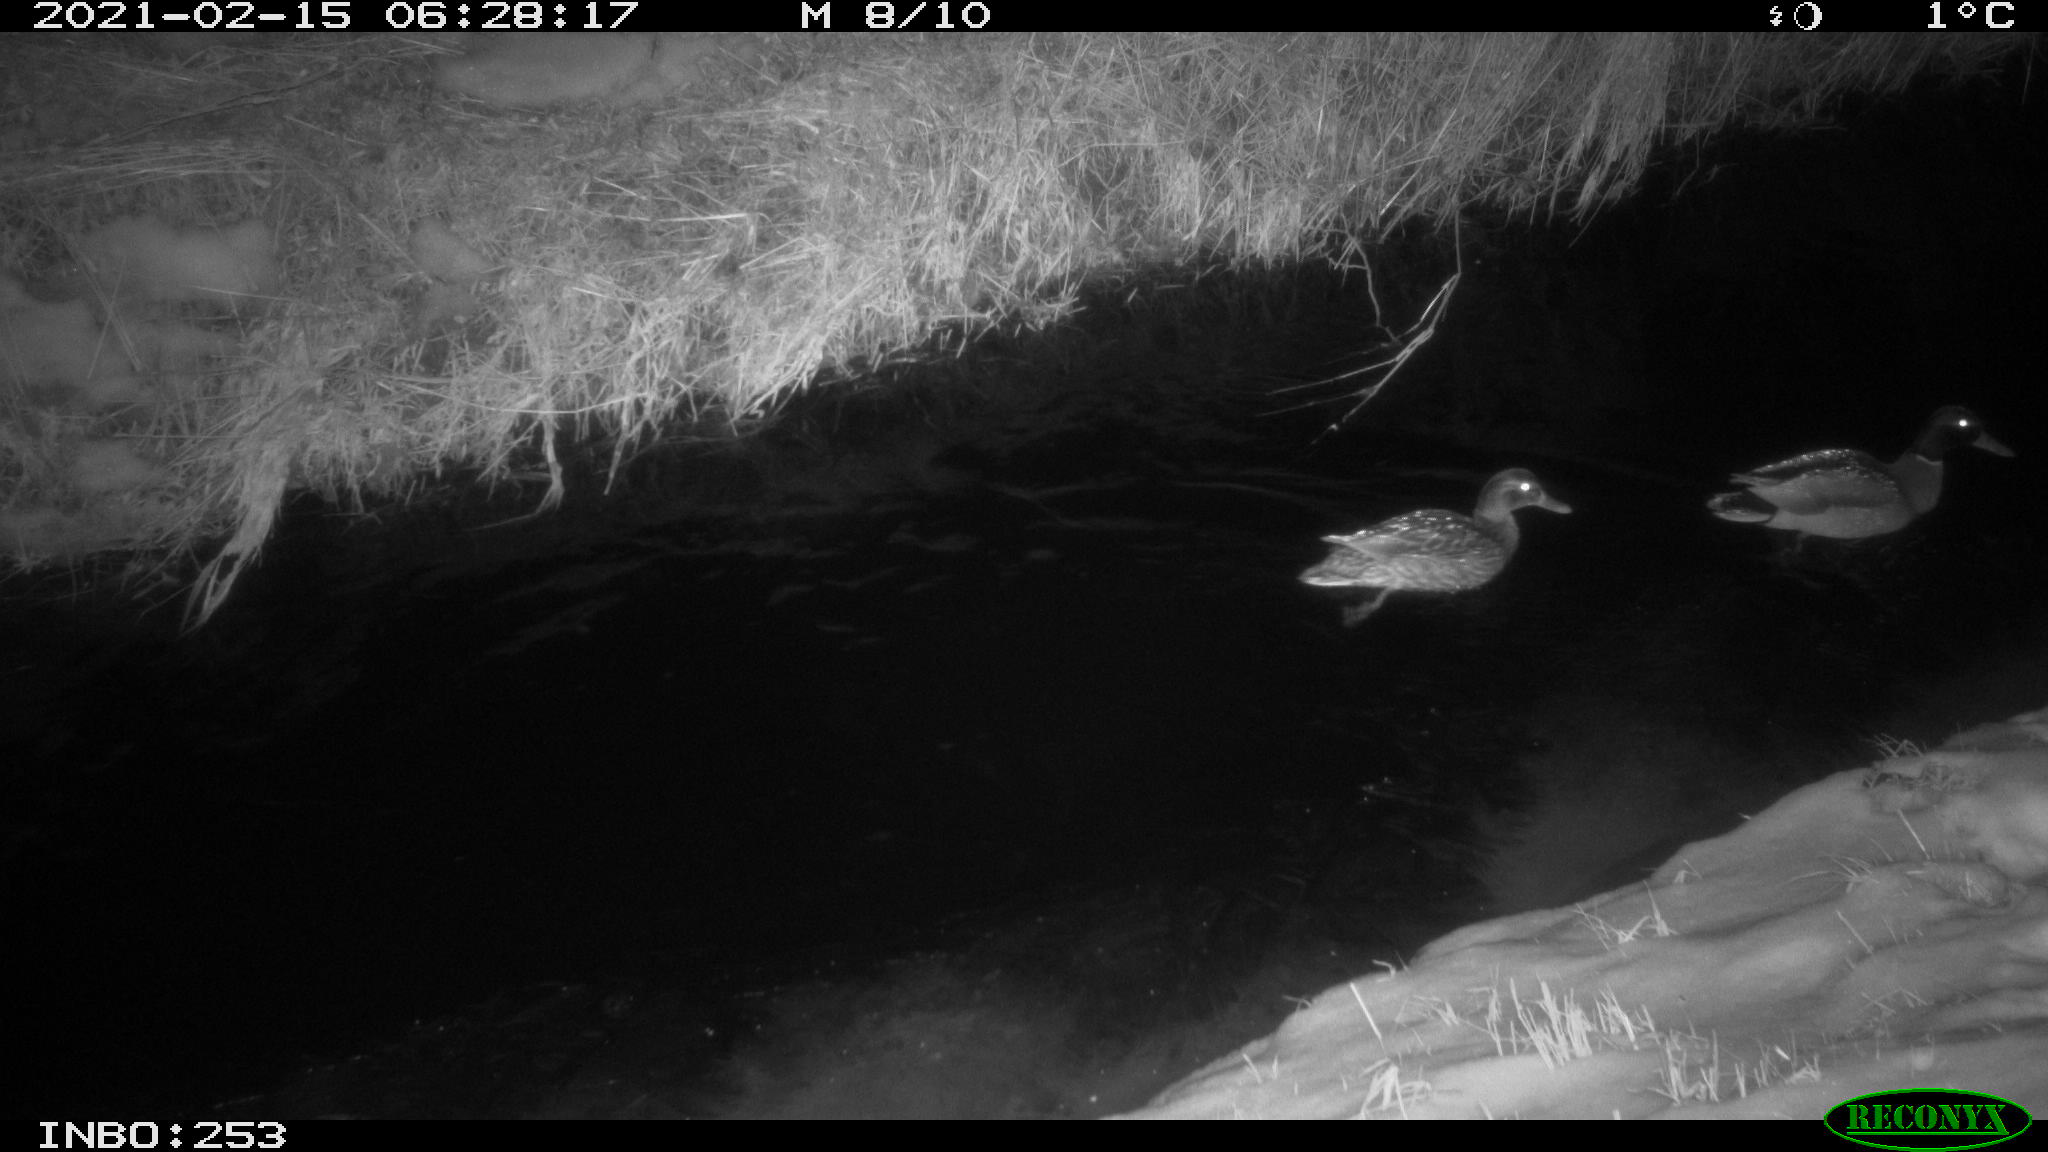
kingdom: Animalia
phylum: Chordata
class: Aves
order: Anseriformes
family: Anatidae
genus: Anas
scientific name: Anas platyrhynchos
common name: Mallard
